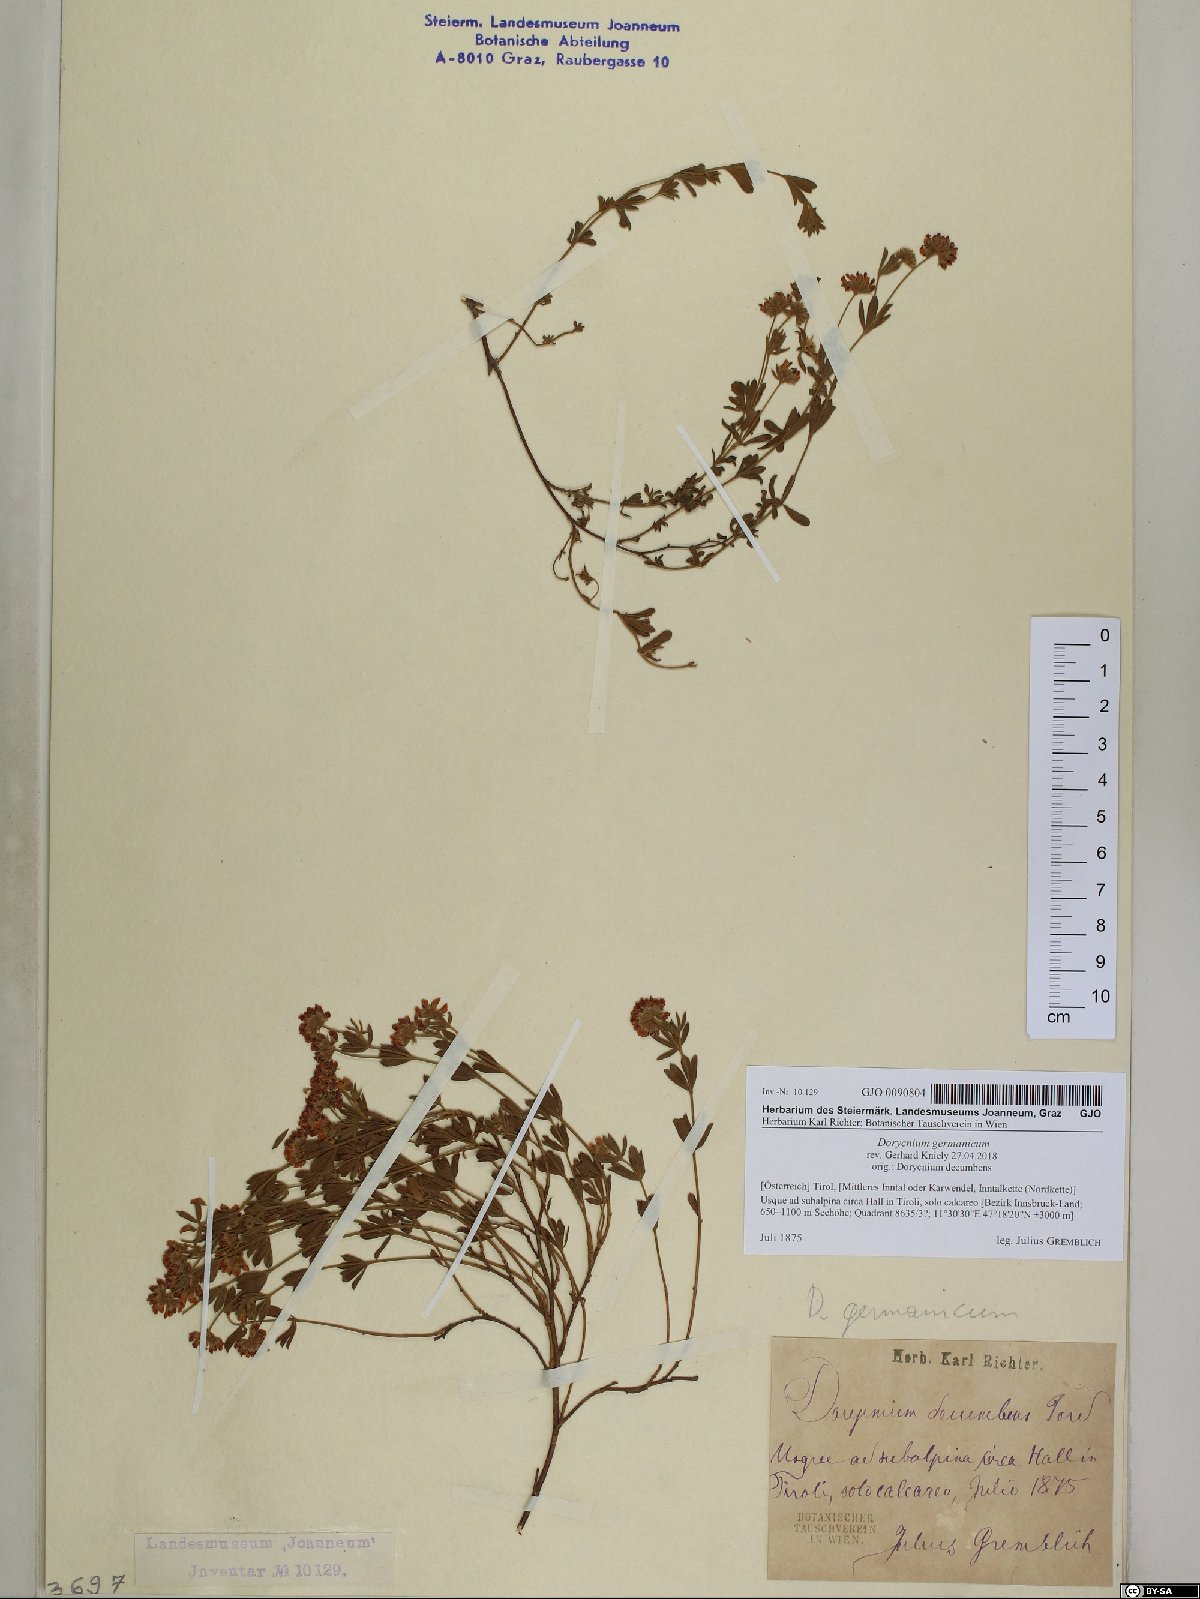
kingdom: Plantae
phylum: Tracheophyta
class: Magnoliopsida
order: Fabales
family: Fabaceae
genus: Lotus
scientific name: Lotus germanicus
